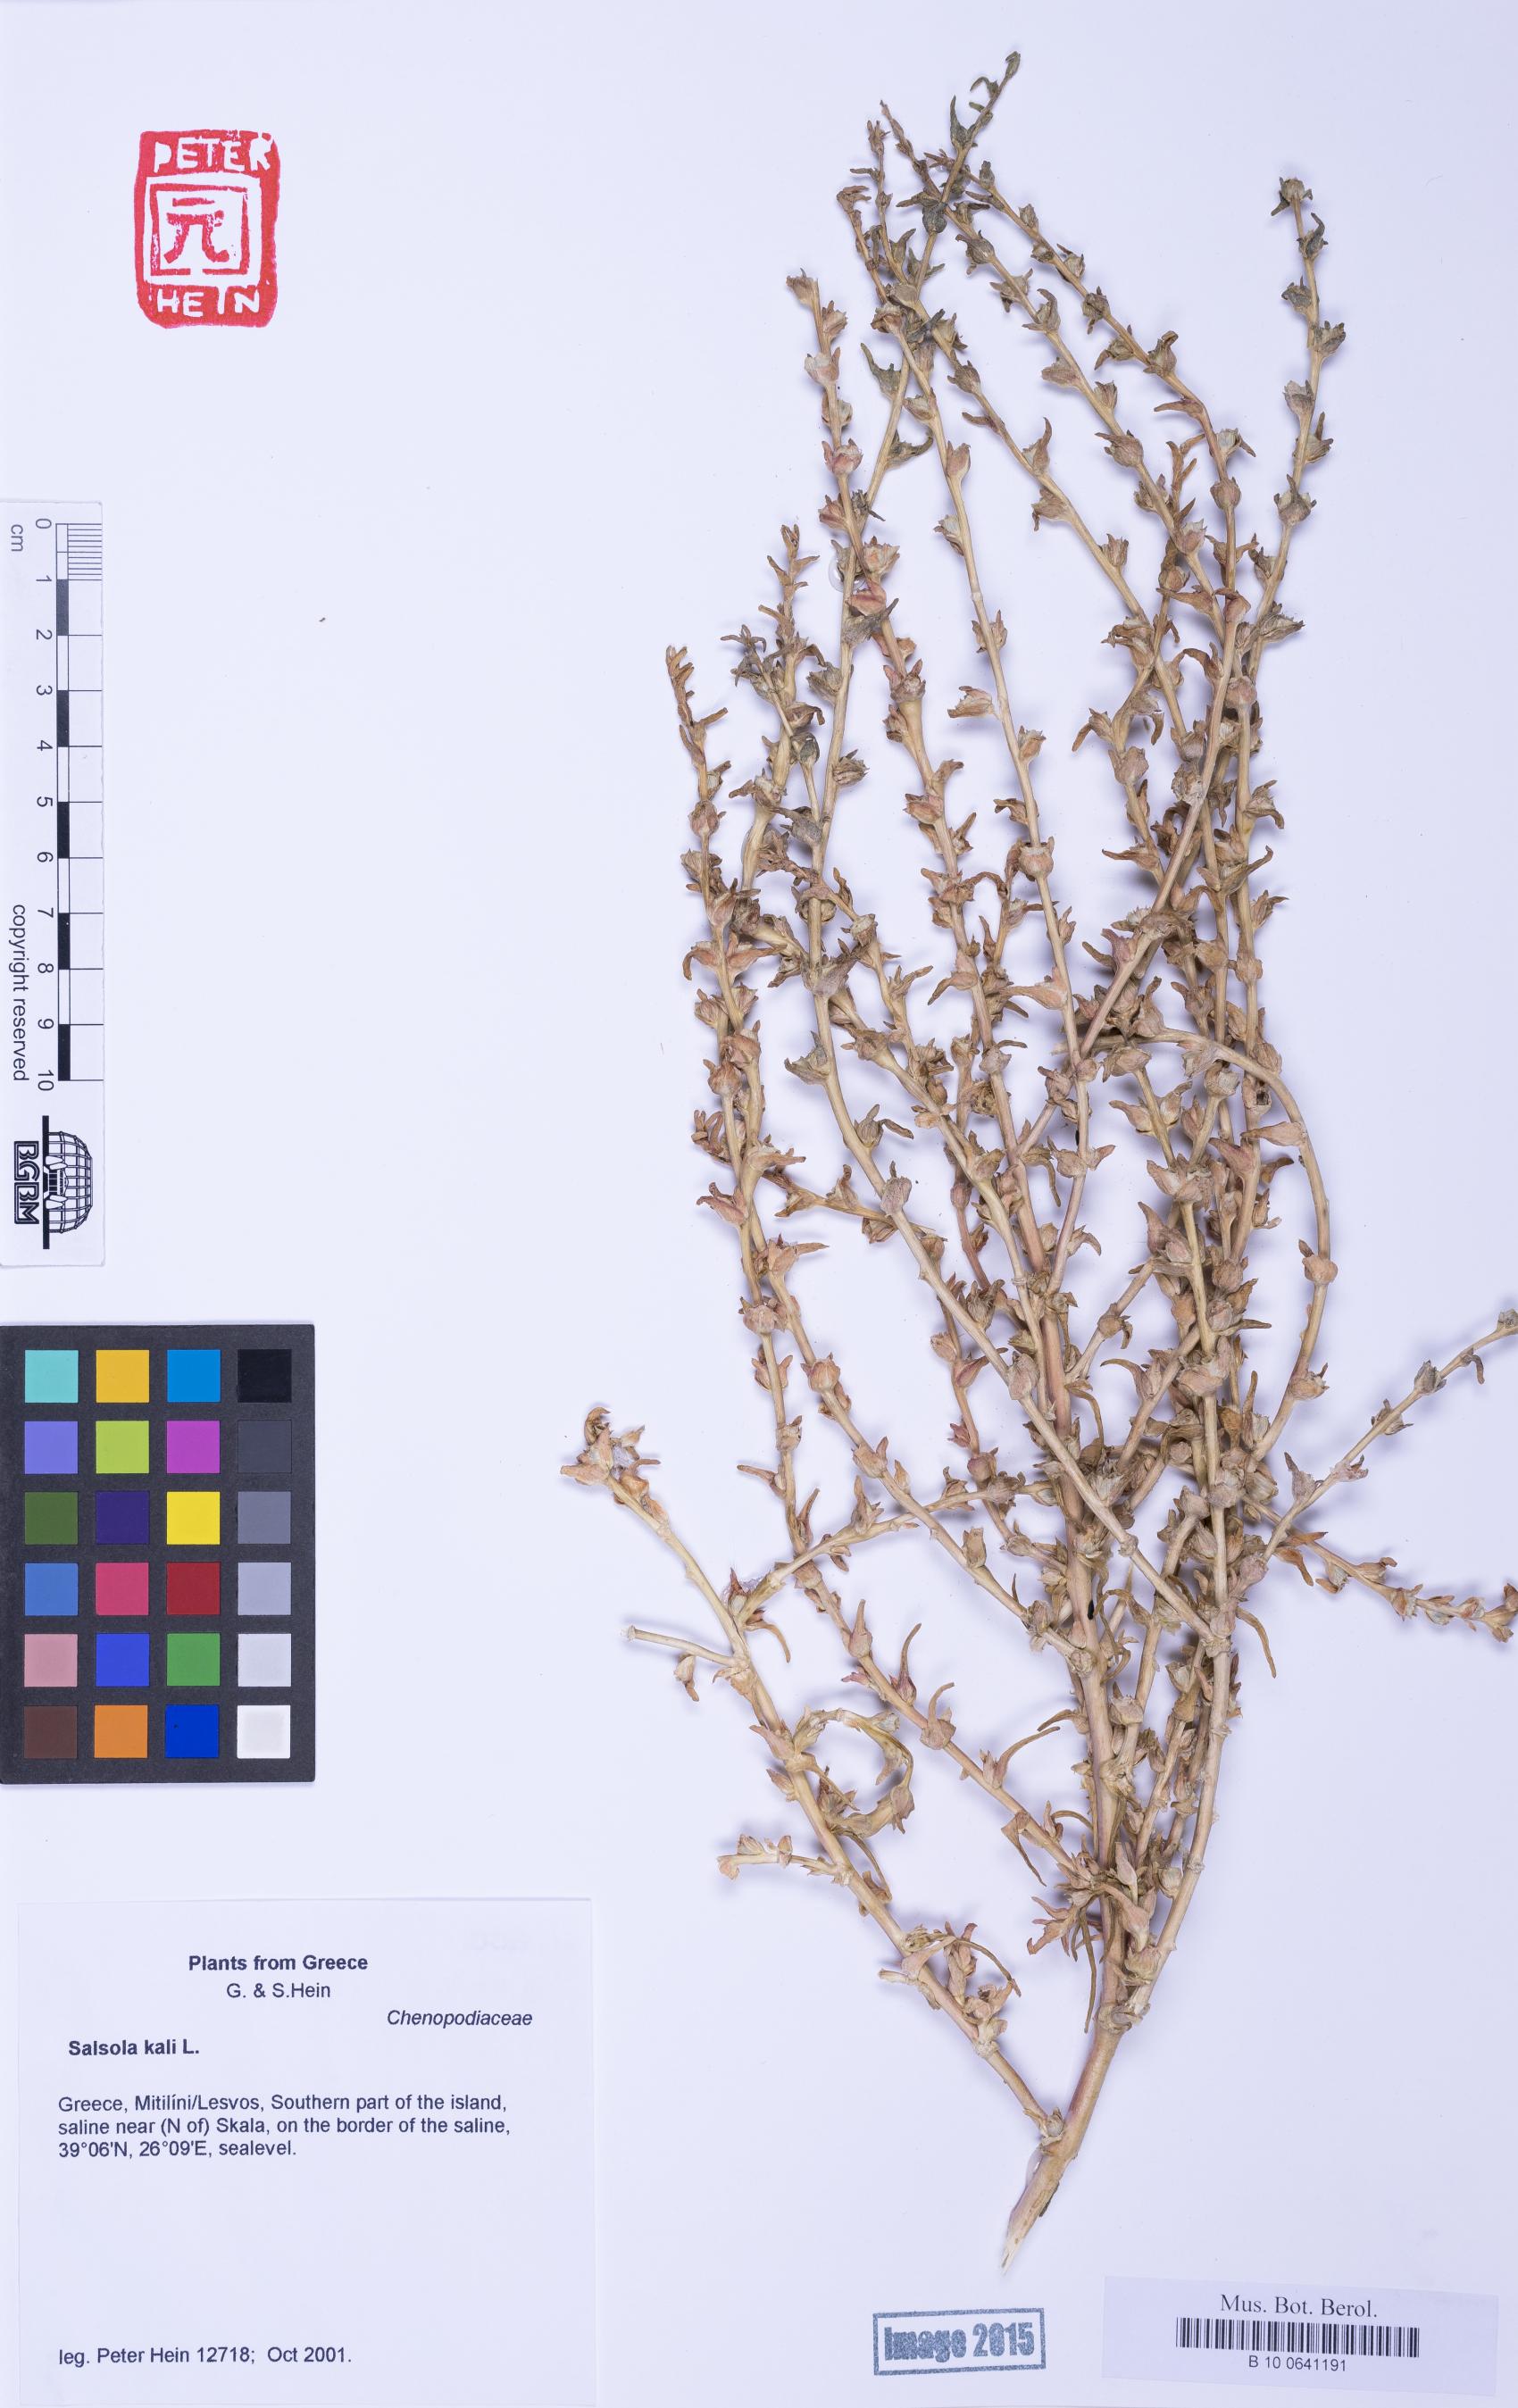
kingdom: Plantae
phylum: Tracheophyta
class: Magnoliopsida
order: Caryophyllales
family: Amaranthaceae
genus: Soda
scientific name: Soda inermis
